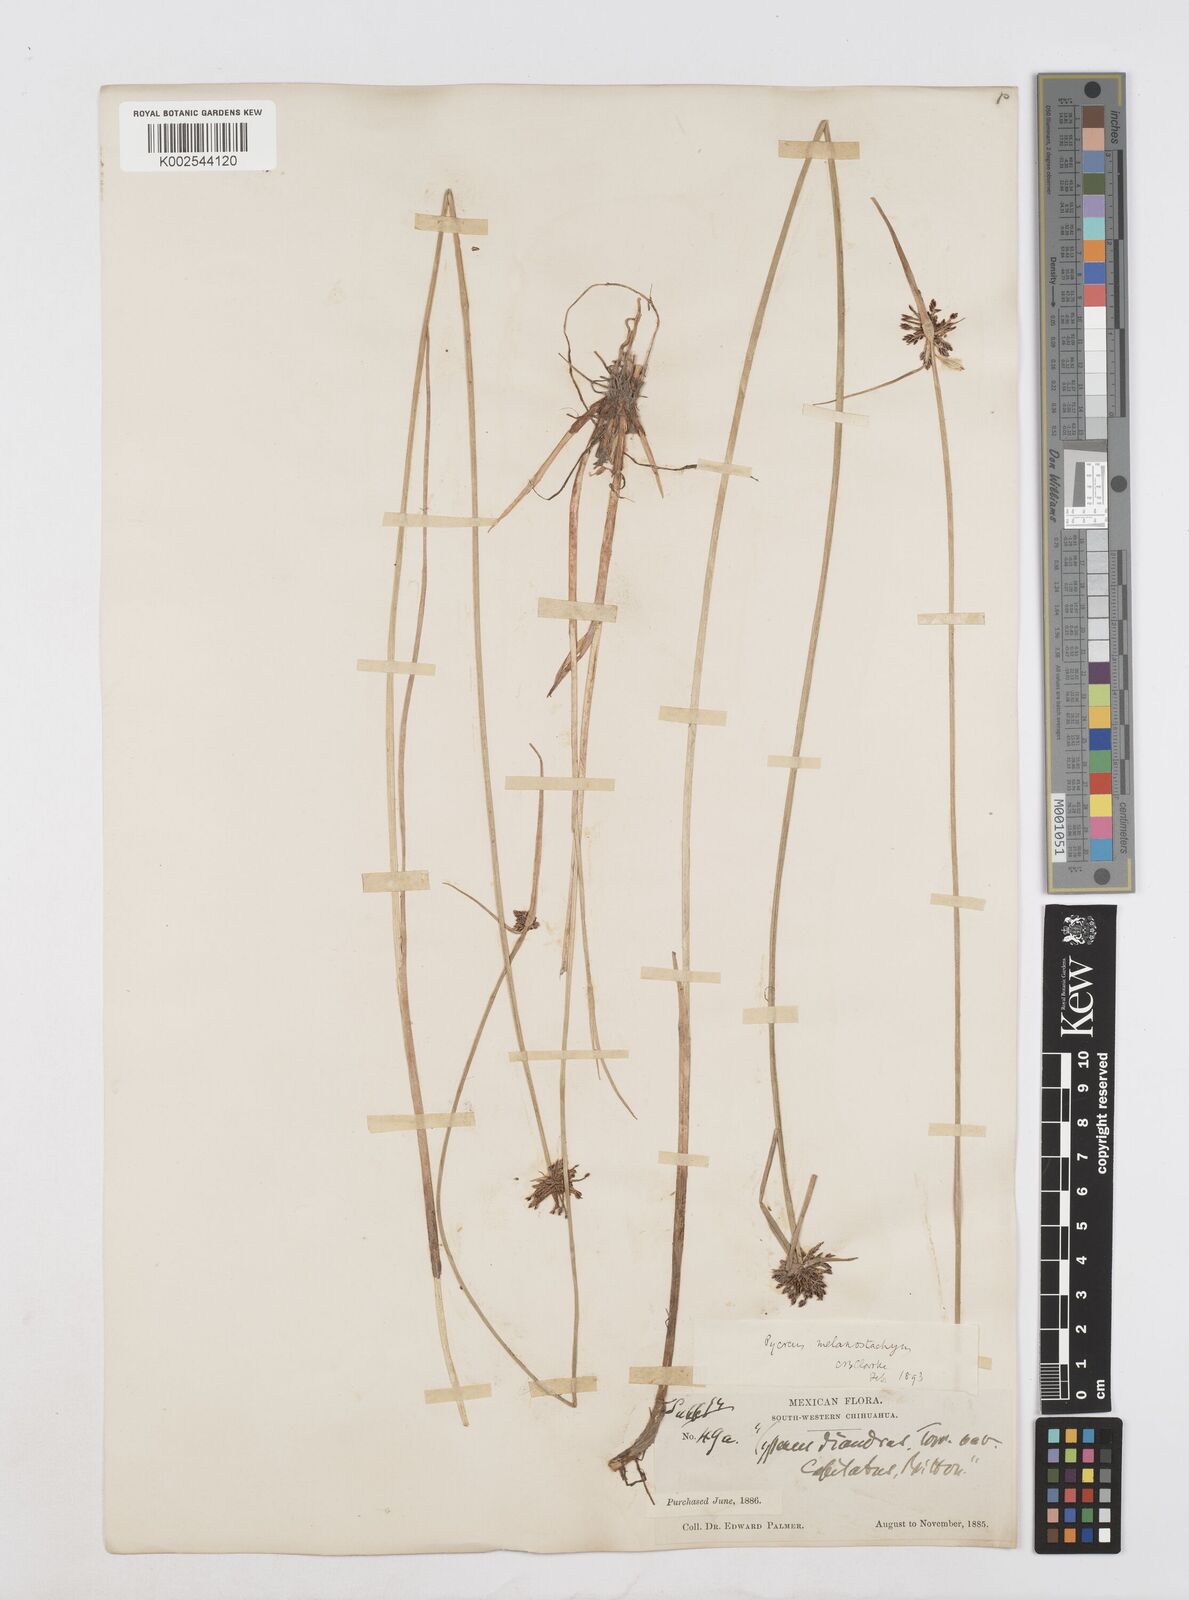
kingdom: Plantae
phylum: Tracheophyta
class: Liliopsida
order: Poales
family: Cyperaceae
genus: Cyperus
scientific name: Cyperus melanostachyus
